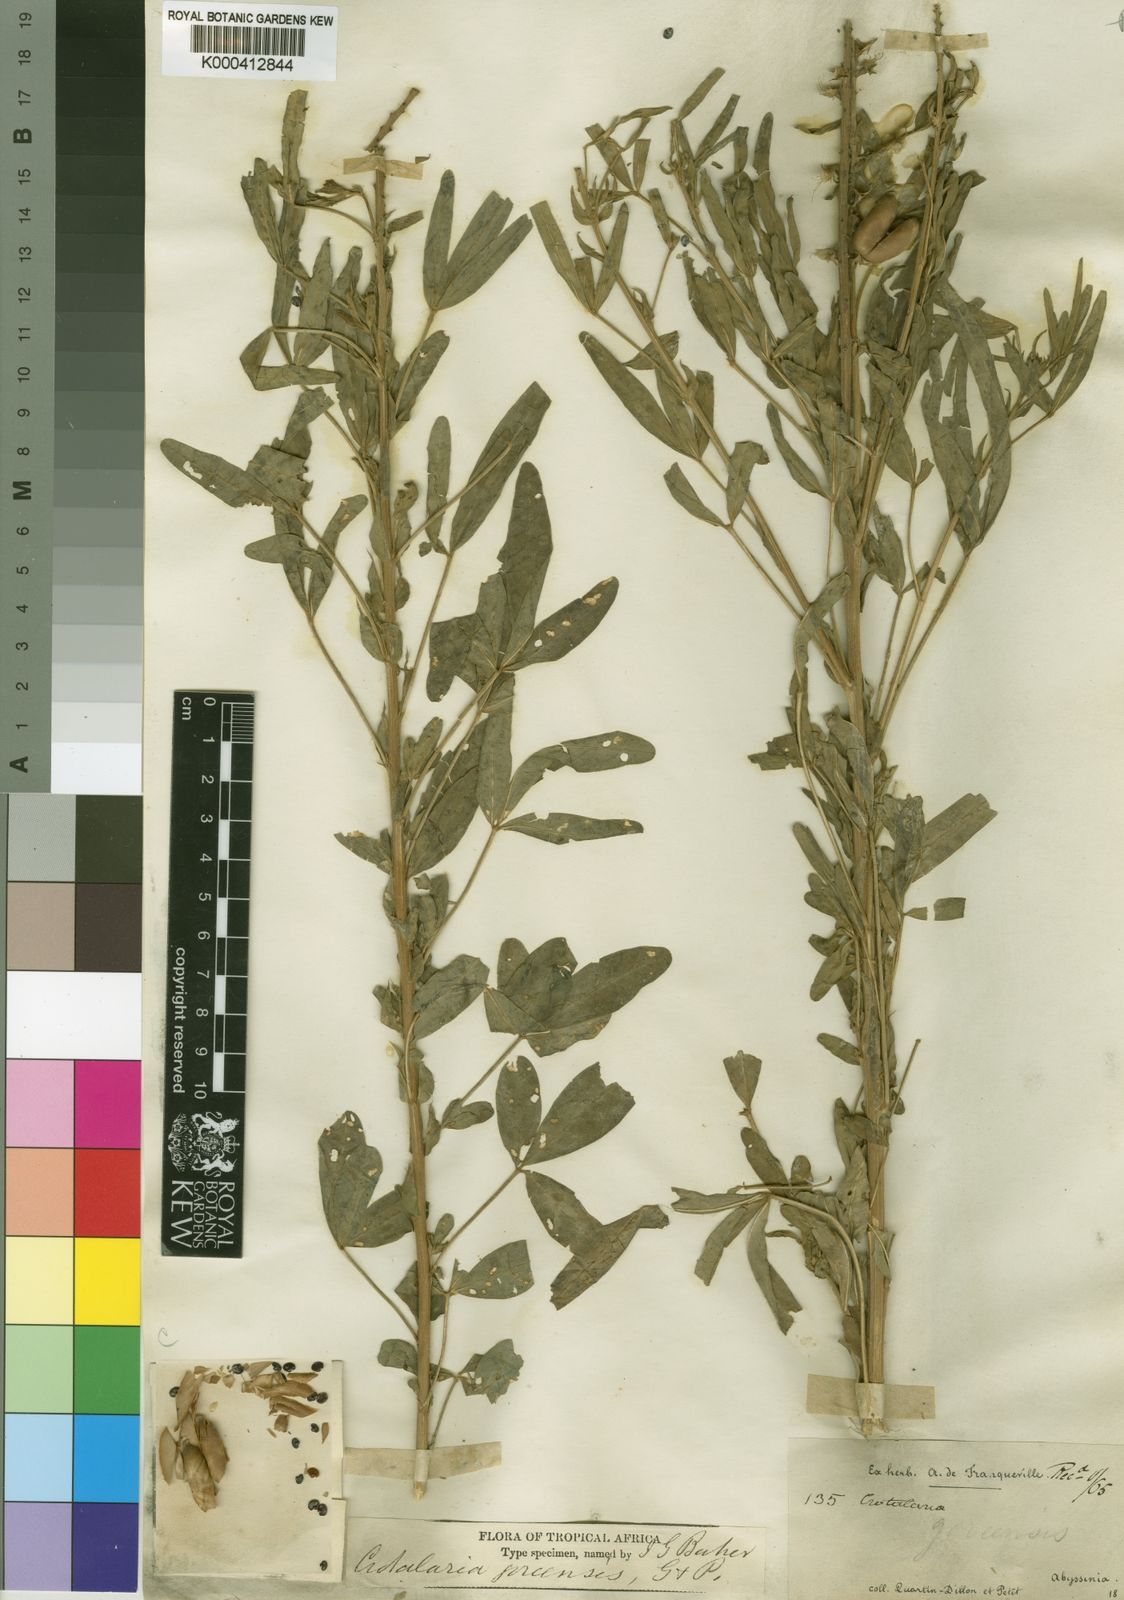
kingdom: Plantae
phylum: Tracheophyta
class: Magnoliopsida
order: Fabales
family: Fabaceae
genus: Crotalaria
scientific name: Crotalaria goreensis
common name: Gambia-pea
